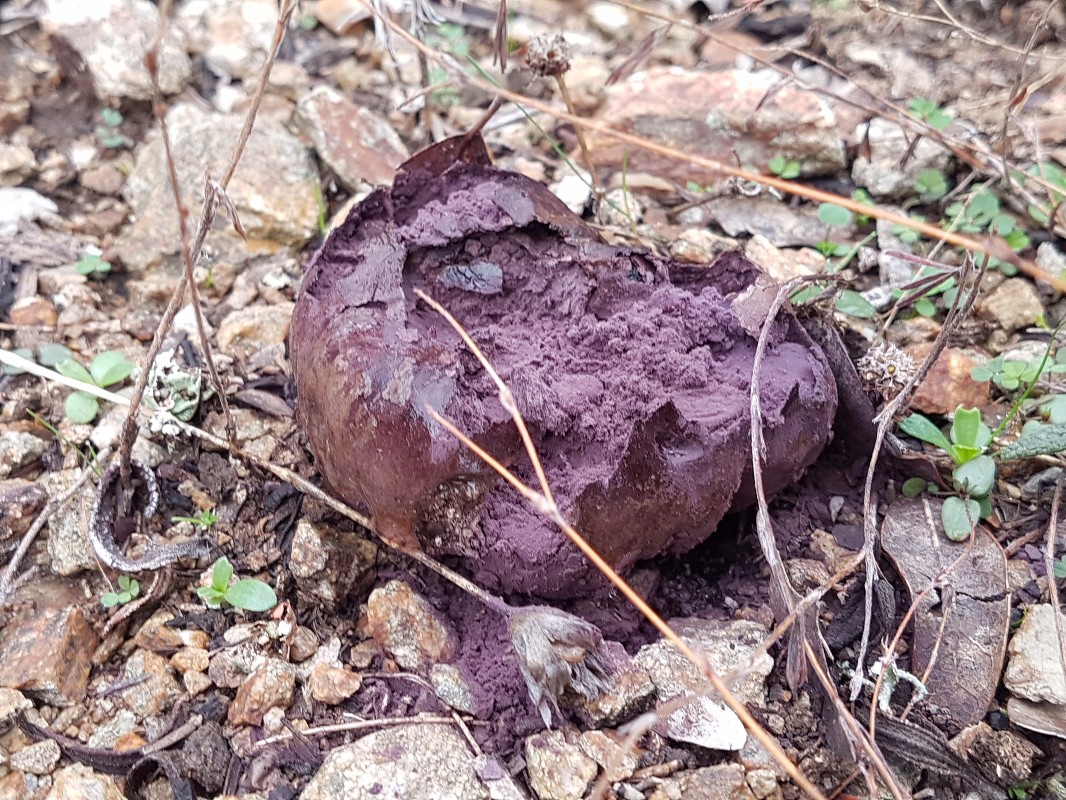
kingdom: Fungi
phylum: Basidiomycota
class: Agaricomycetes
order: Agaricales
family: Lycoperdaceae
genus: Calvatia
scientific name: Calvatia cyathiformis
